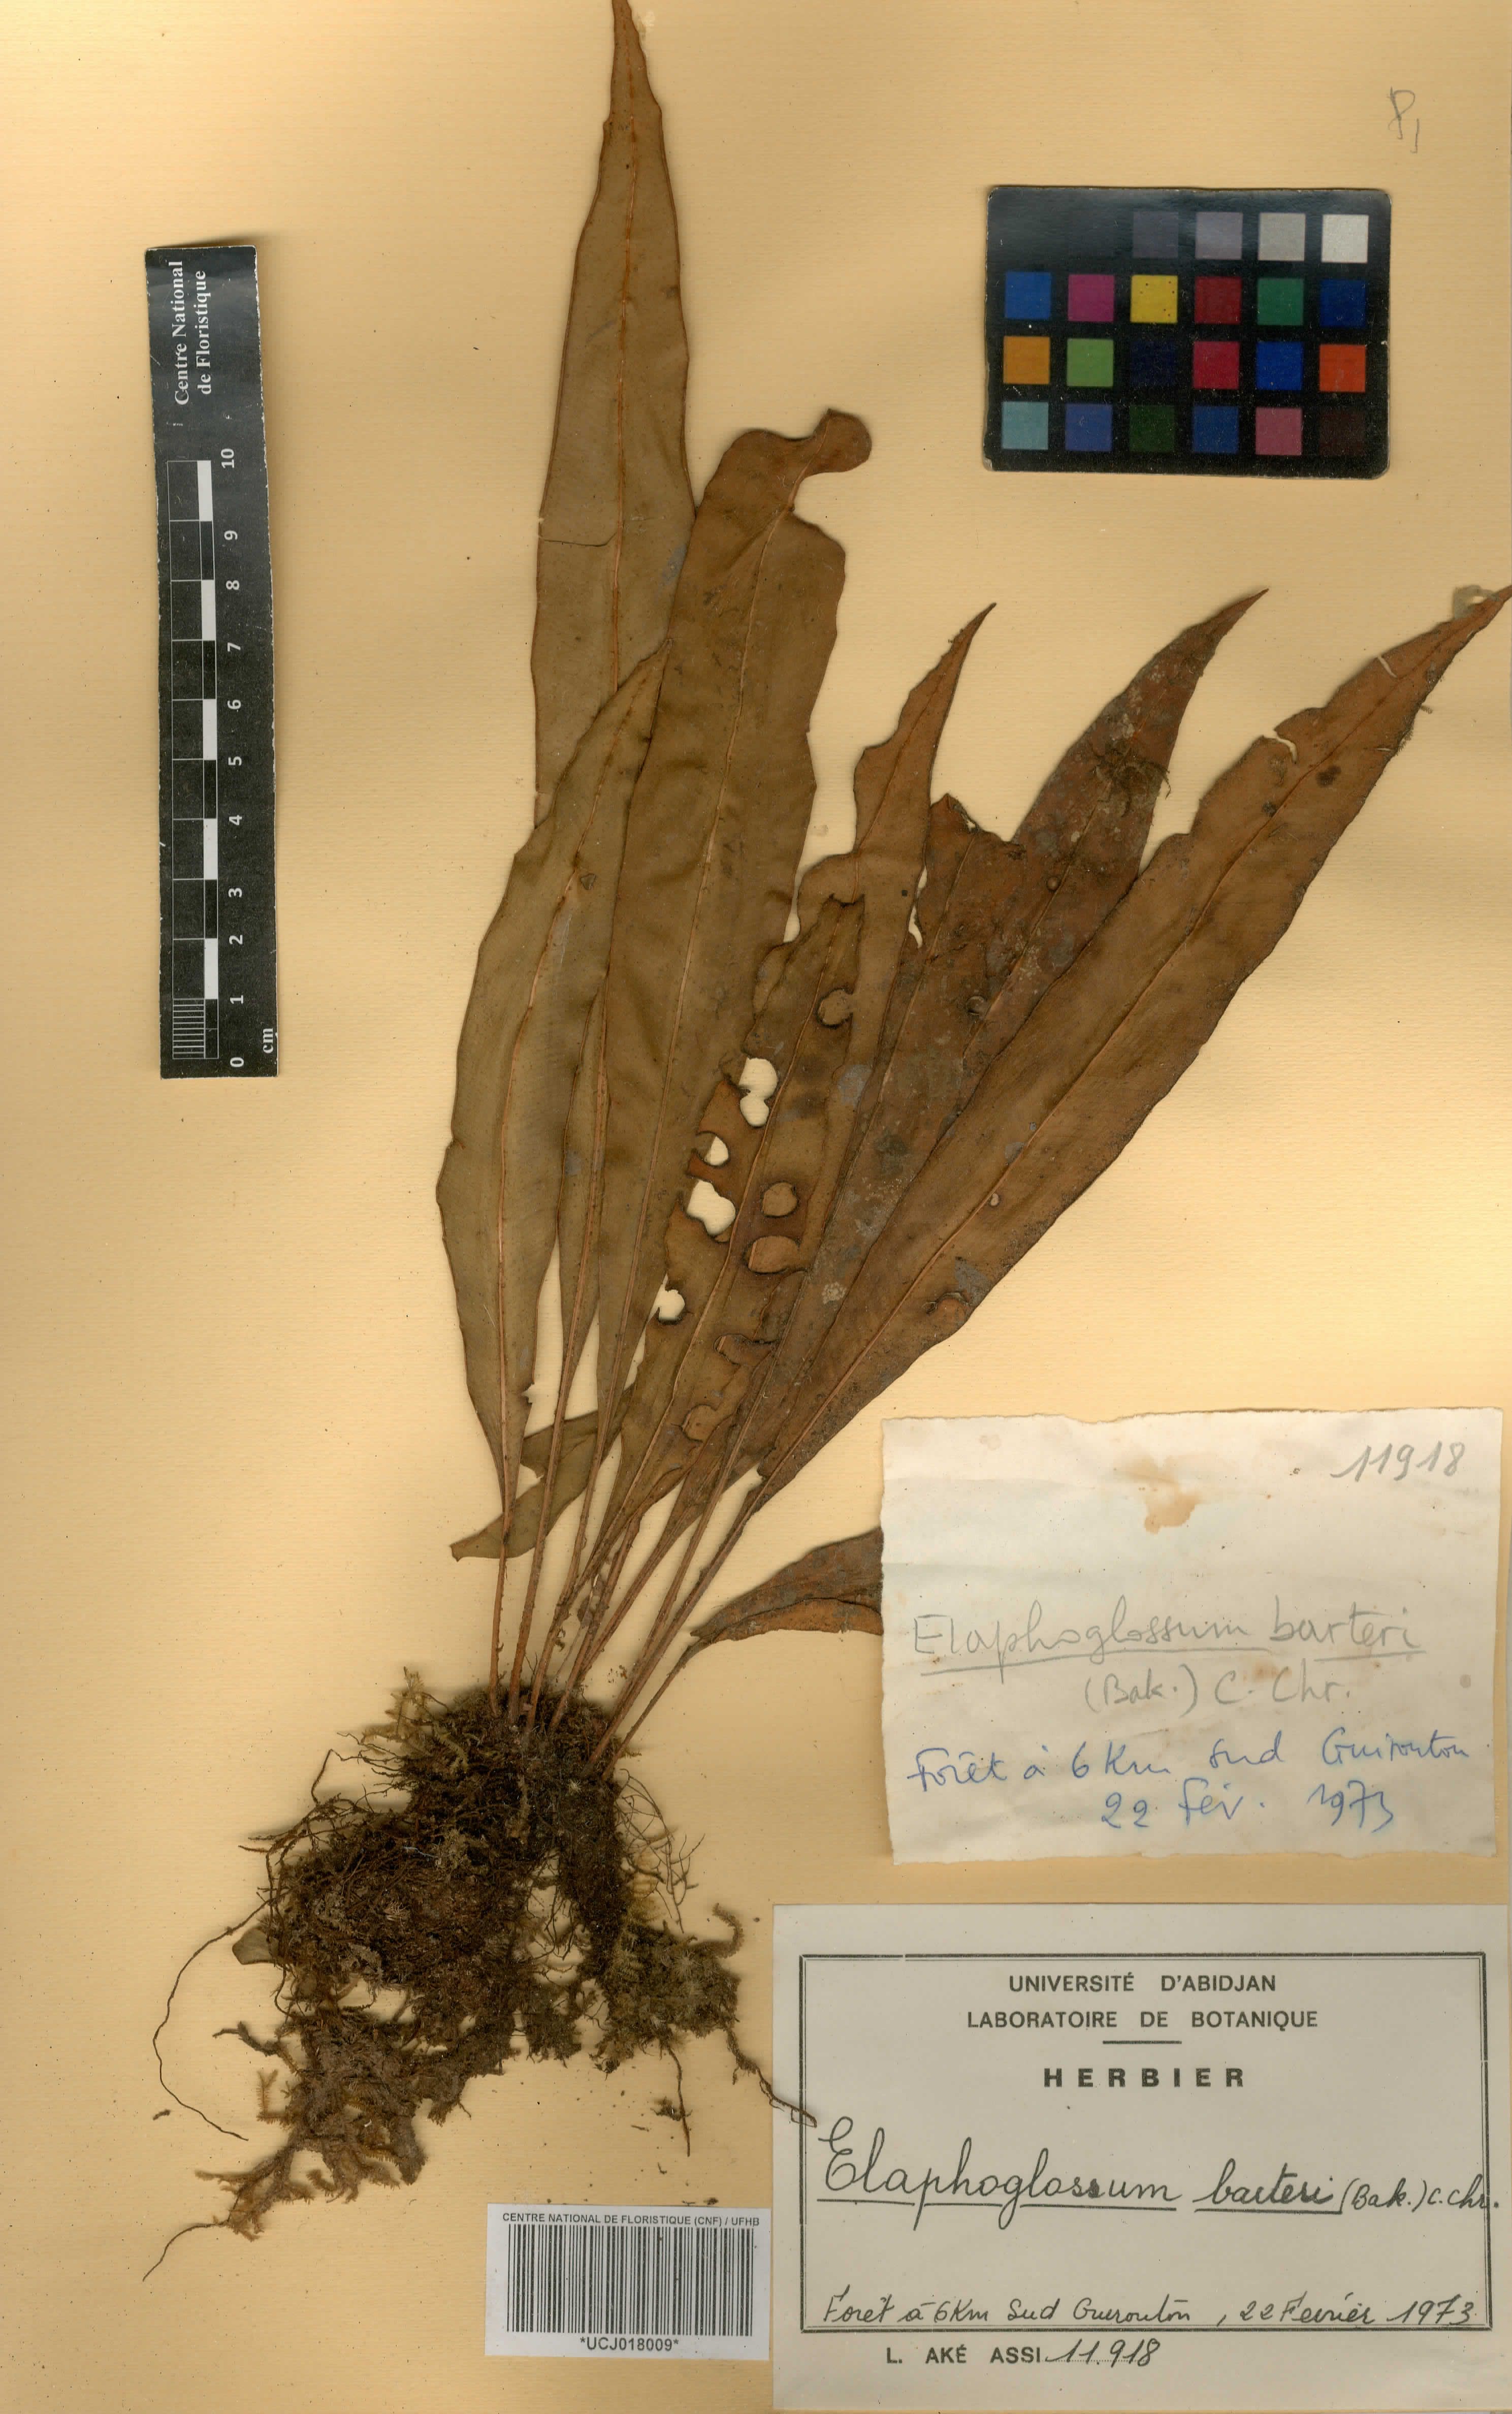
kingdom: Plantae
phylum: Tracheophyta
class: Polypodiopsida
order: Polypodiales
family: Dryopteridaceae
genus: Elaphoglossum
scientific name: Elaphoglossum barteri
